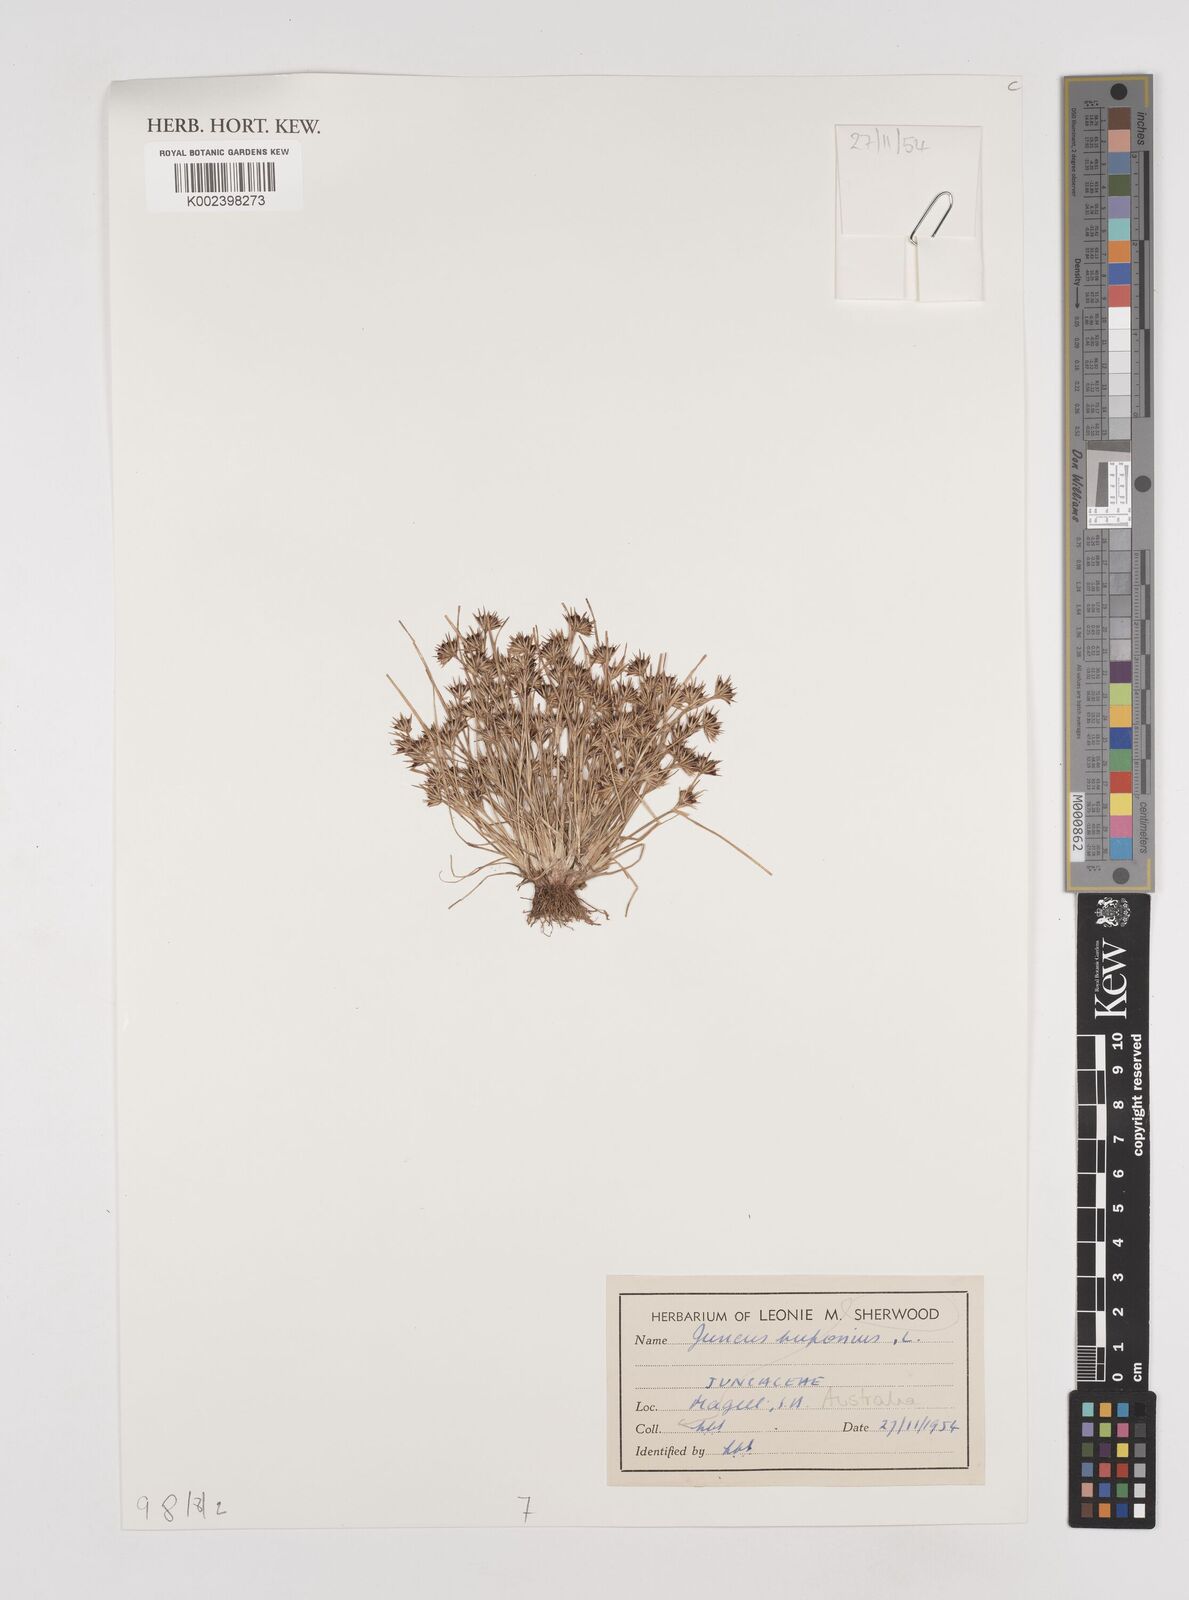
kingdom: Plantae
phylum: Tracheophyta
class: Liliopsida
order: Poales
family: Juncaceae
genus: Juncus
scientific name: Juncus bufonius
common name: Toad rush
